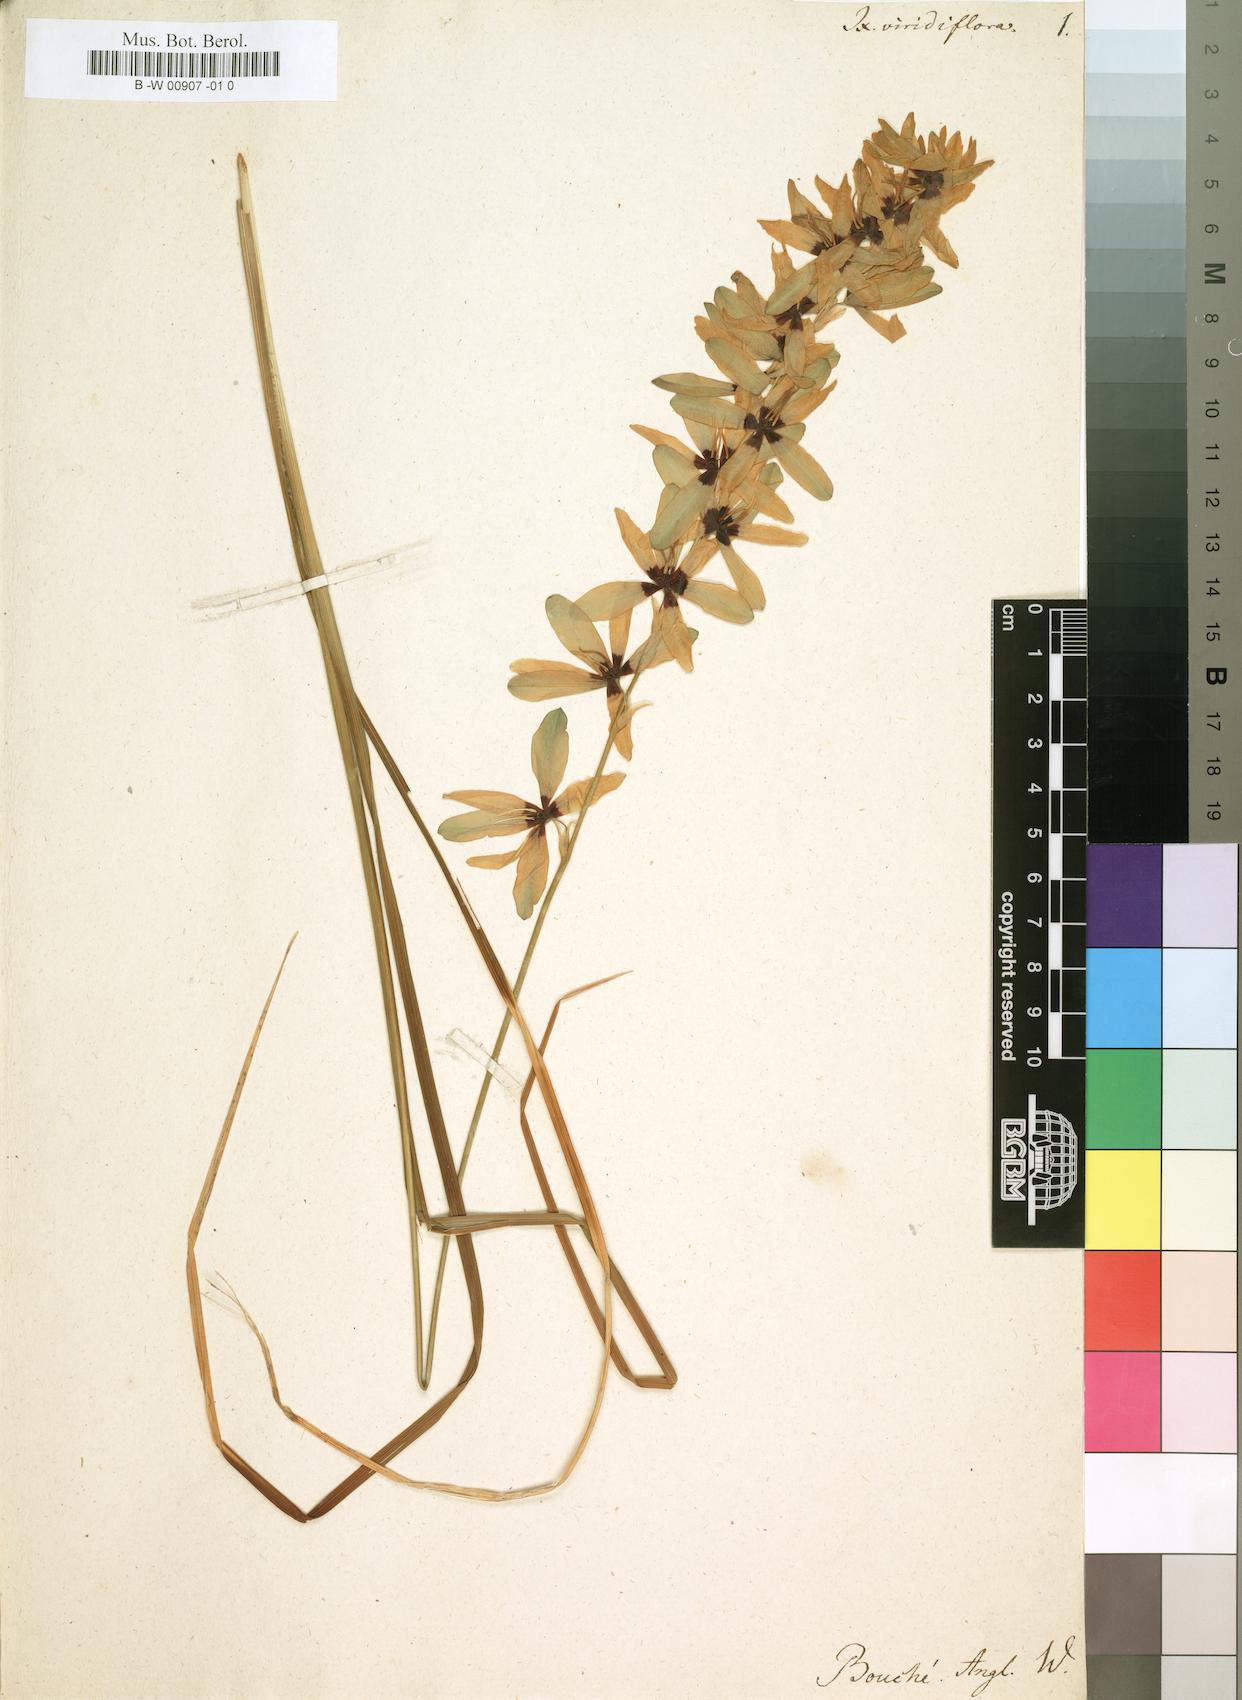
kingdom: Plantae
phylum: Tracheophyta
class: Liliopsida
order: Asparagales
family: Iridaceae
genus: Ixia
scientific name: Ixia viridiflora
